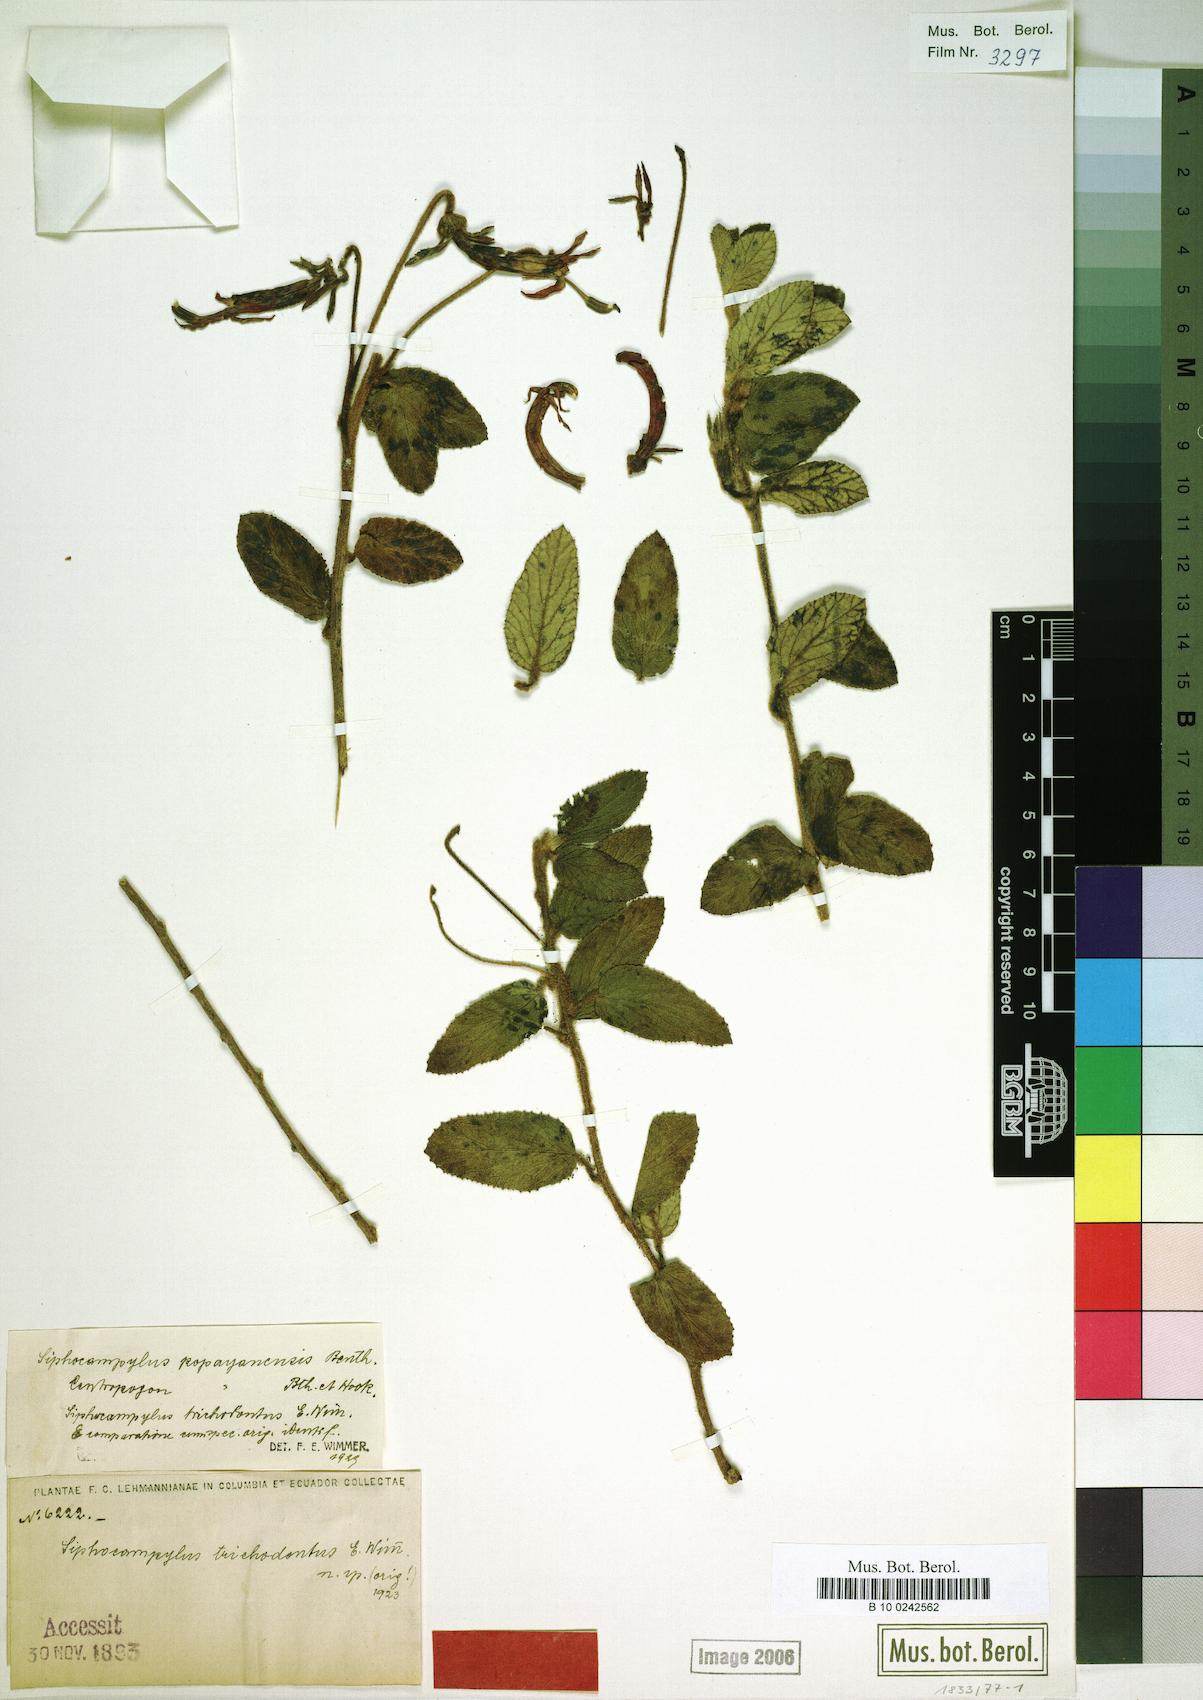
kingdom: Plantae
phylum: Tracheophyta
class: Magnoliopsida
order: Asterales
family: Campanulaceae
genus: Siphocampylus
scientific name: Siphocampylus popayanensis
